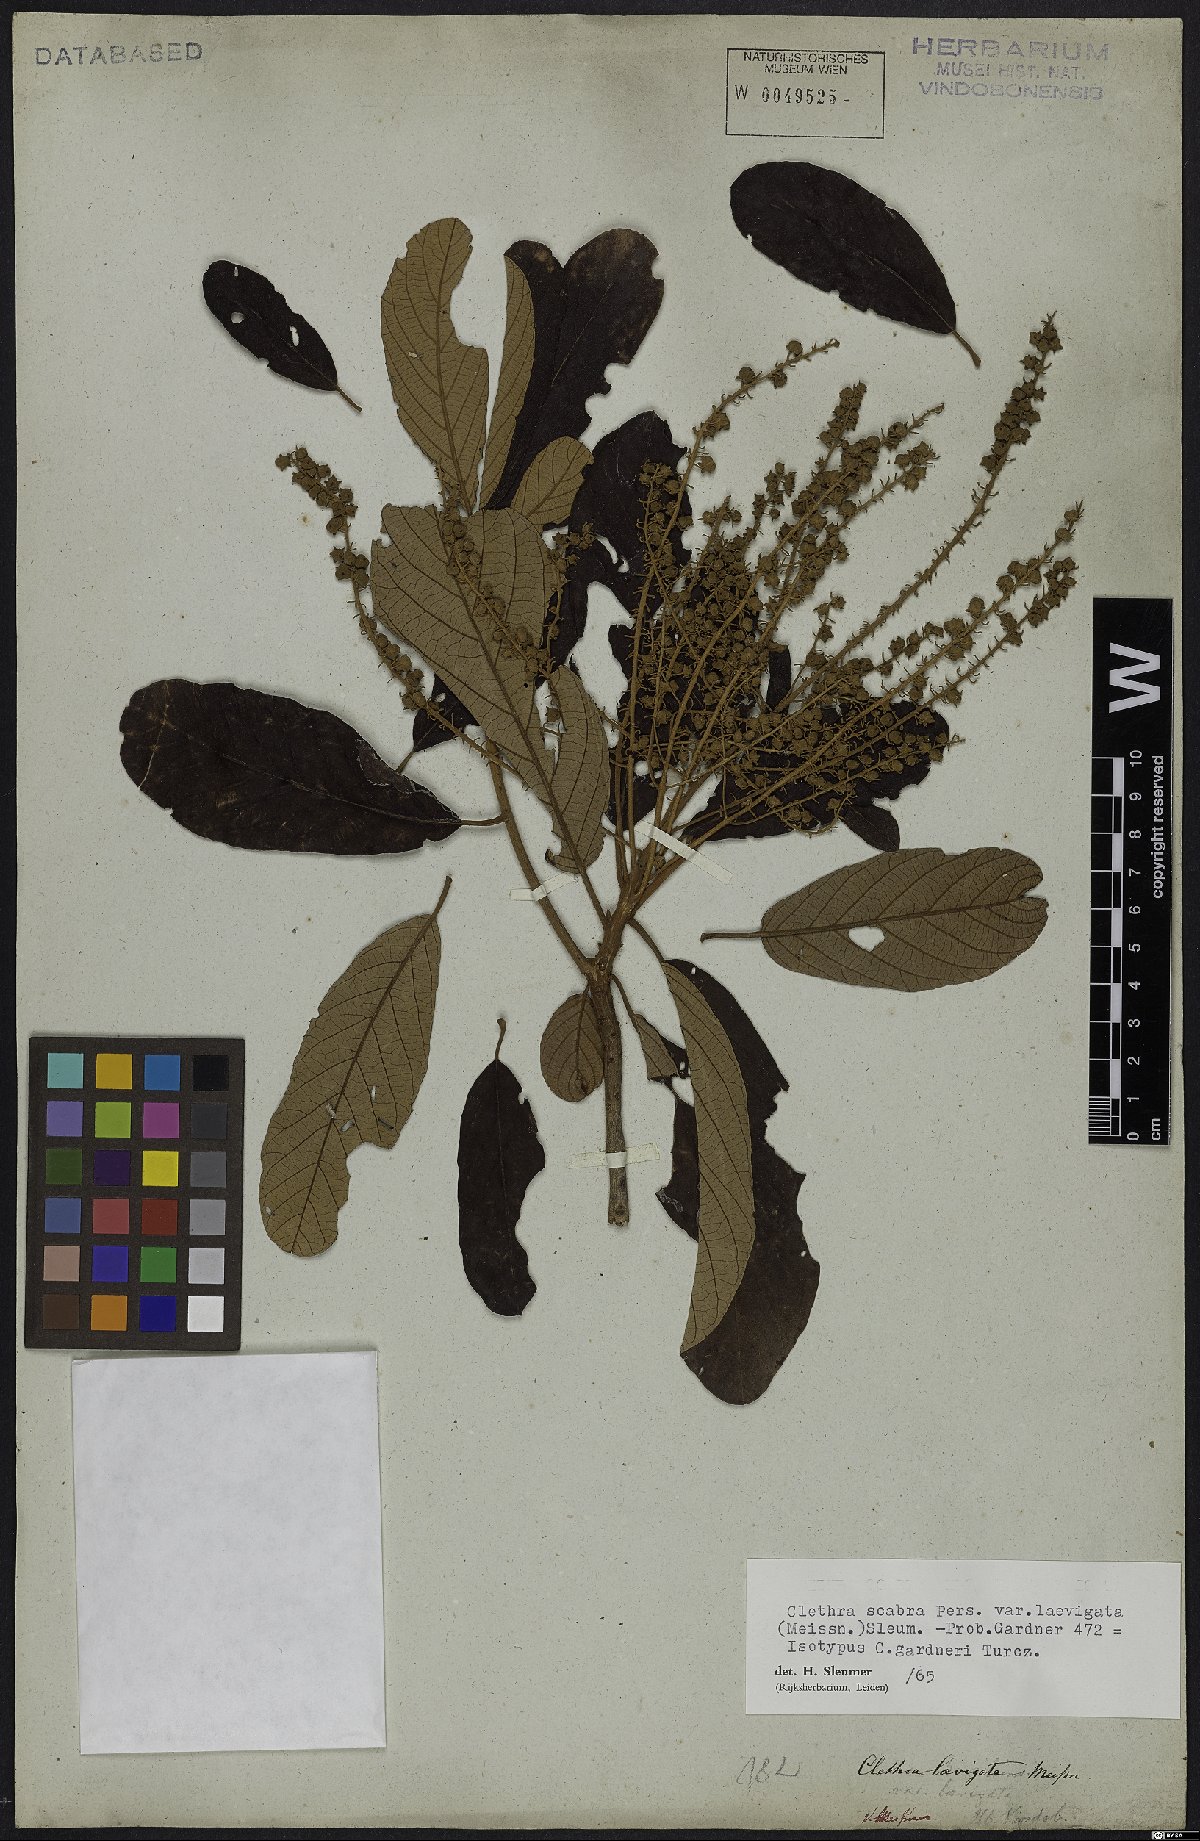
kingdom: Plantae
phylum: Tracheophyta
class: Magnoliopsida
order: Ericales
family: Clethraceae
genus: Clethra
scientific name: Clethra scabra
